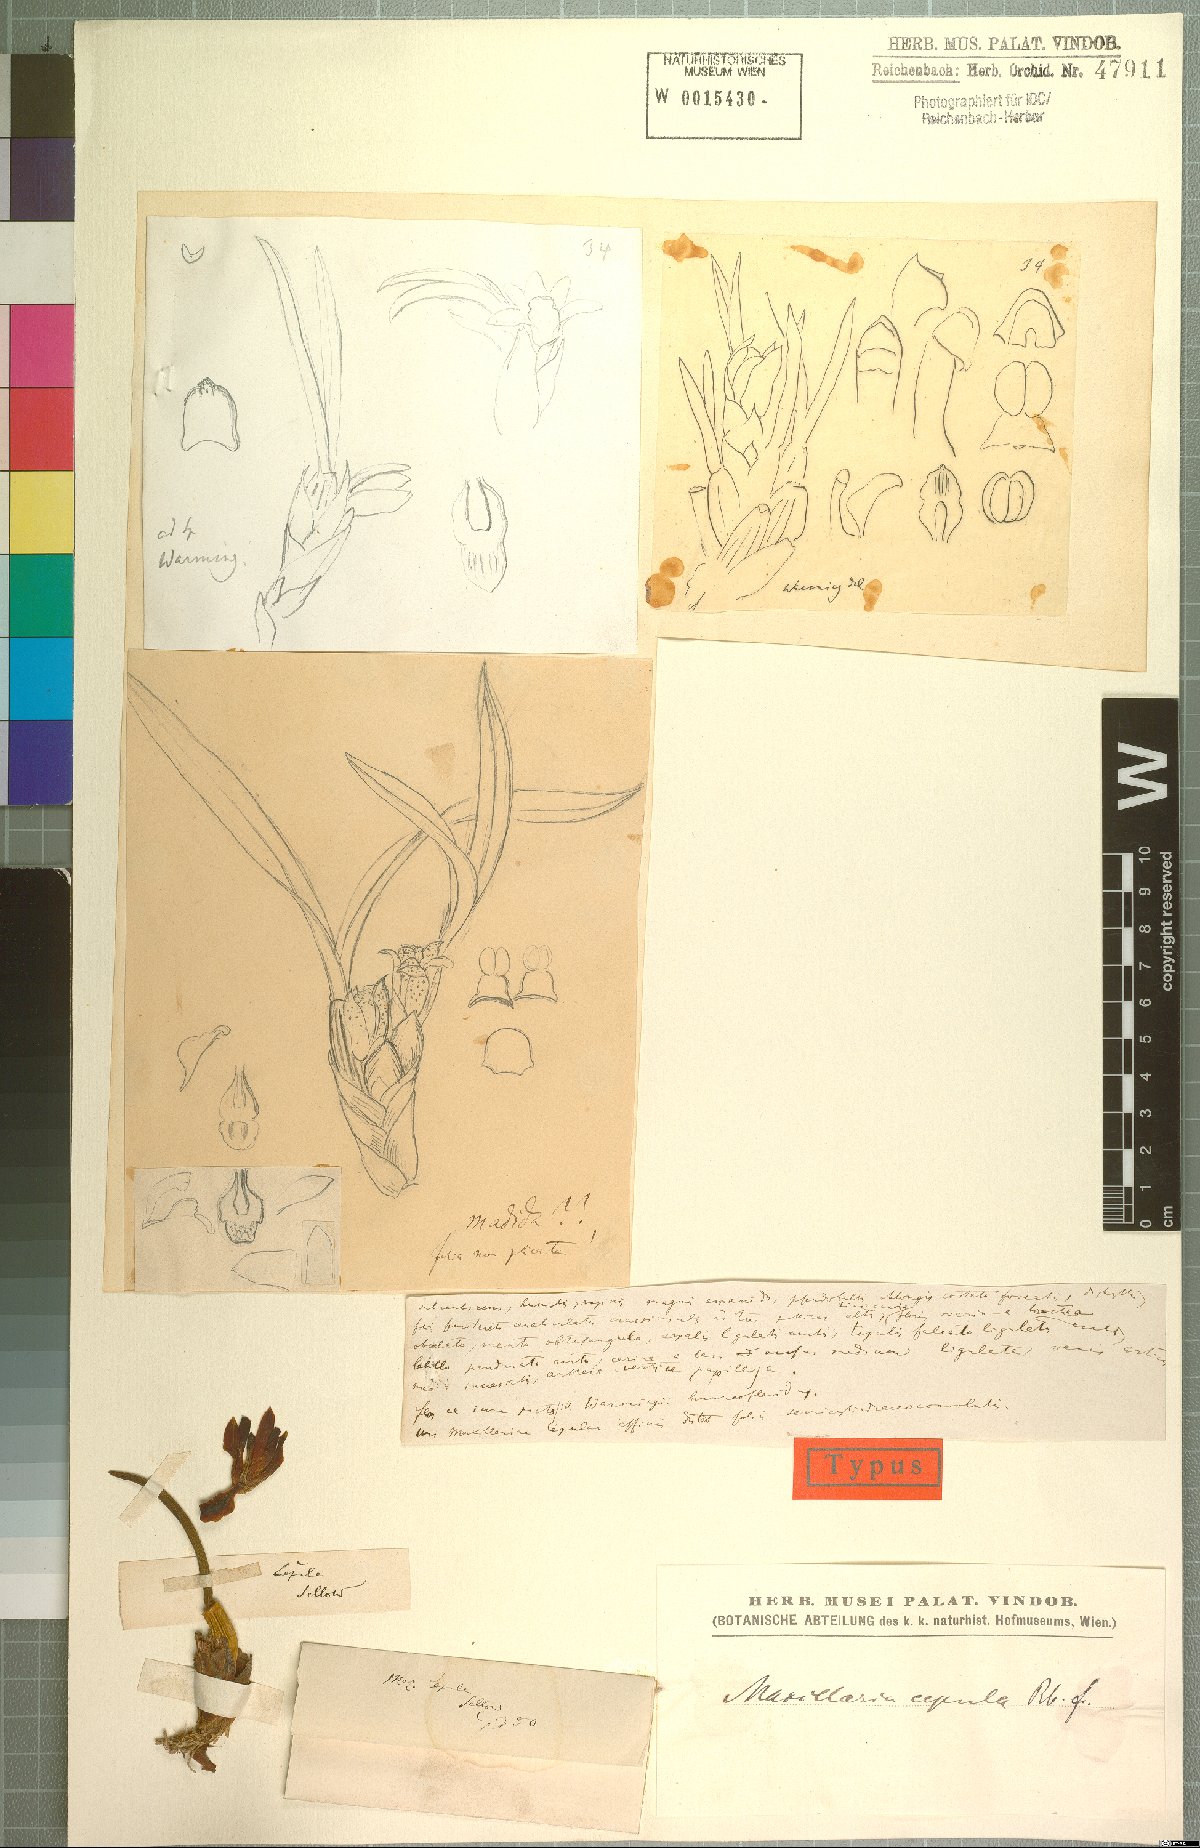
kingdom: Plantae
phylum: Tracheophyta
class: Liliopsida
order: Asparagales
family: Orchidaceae
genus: Maxillaria
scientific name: Maxillaria subulata
